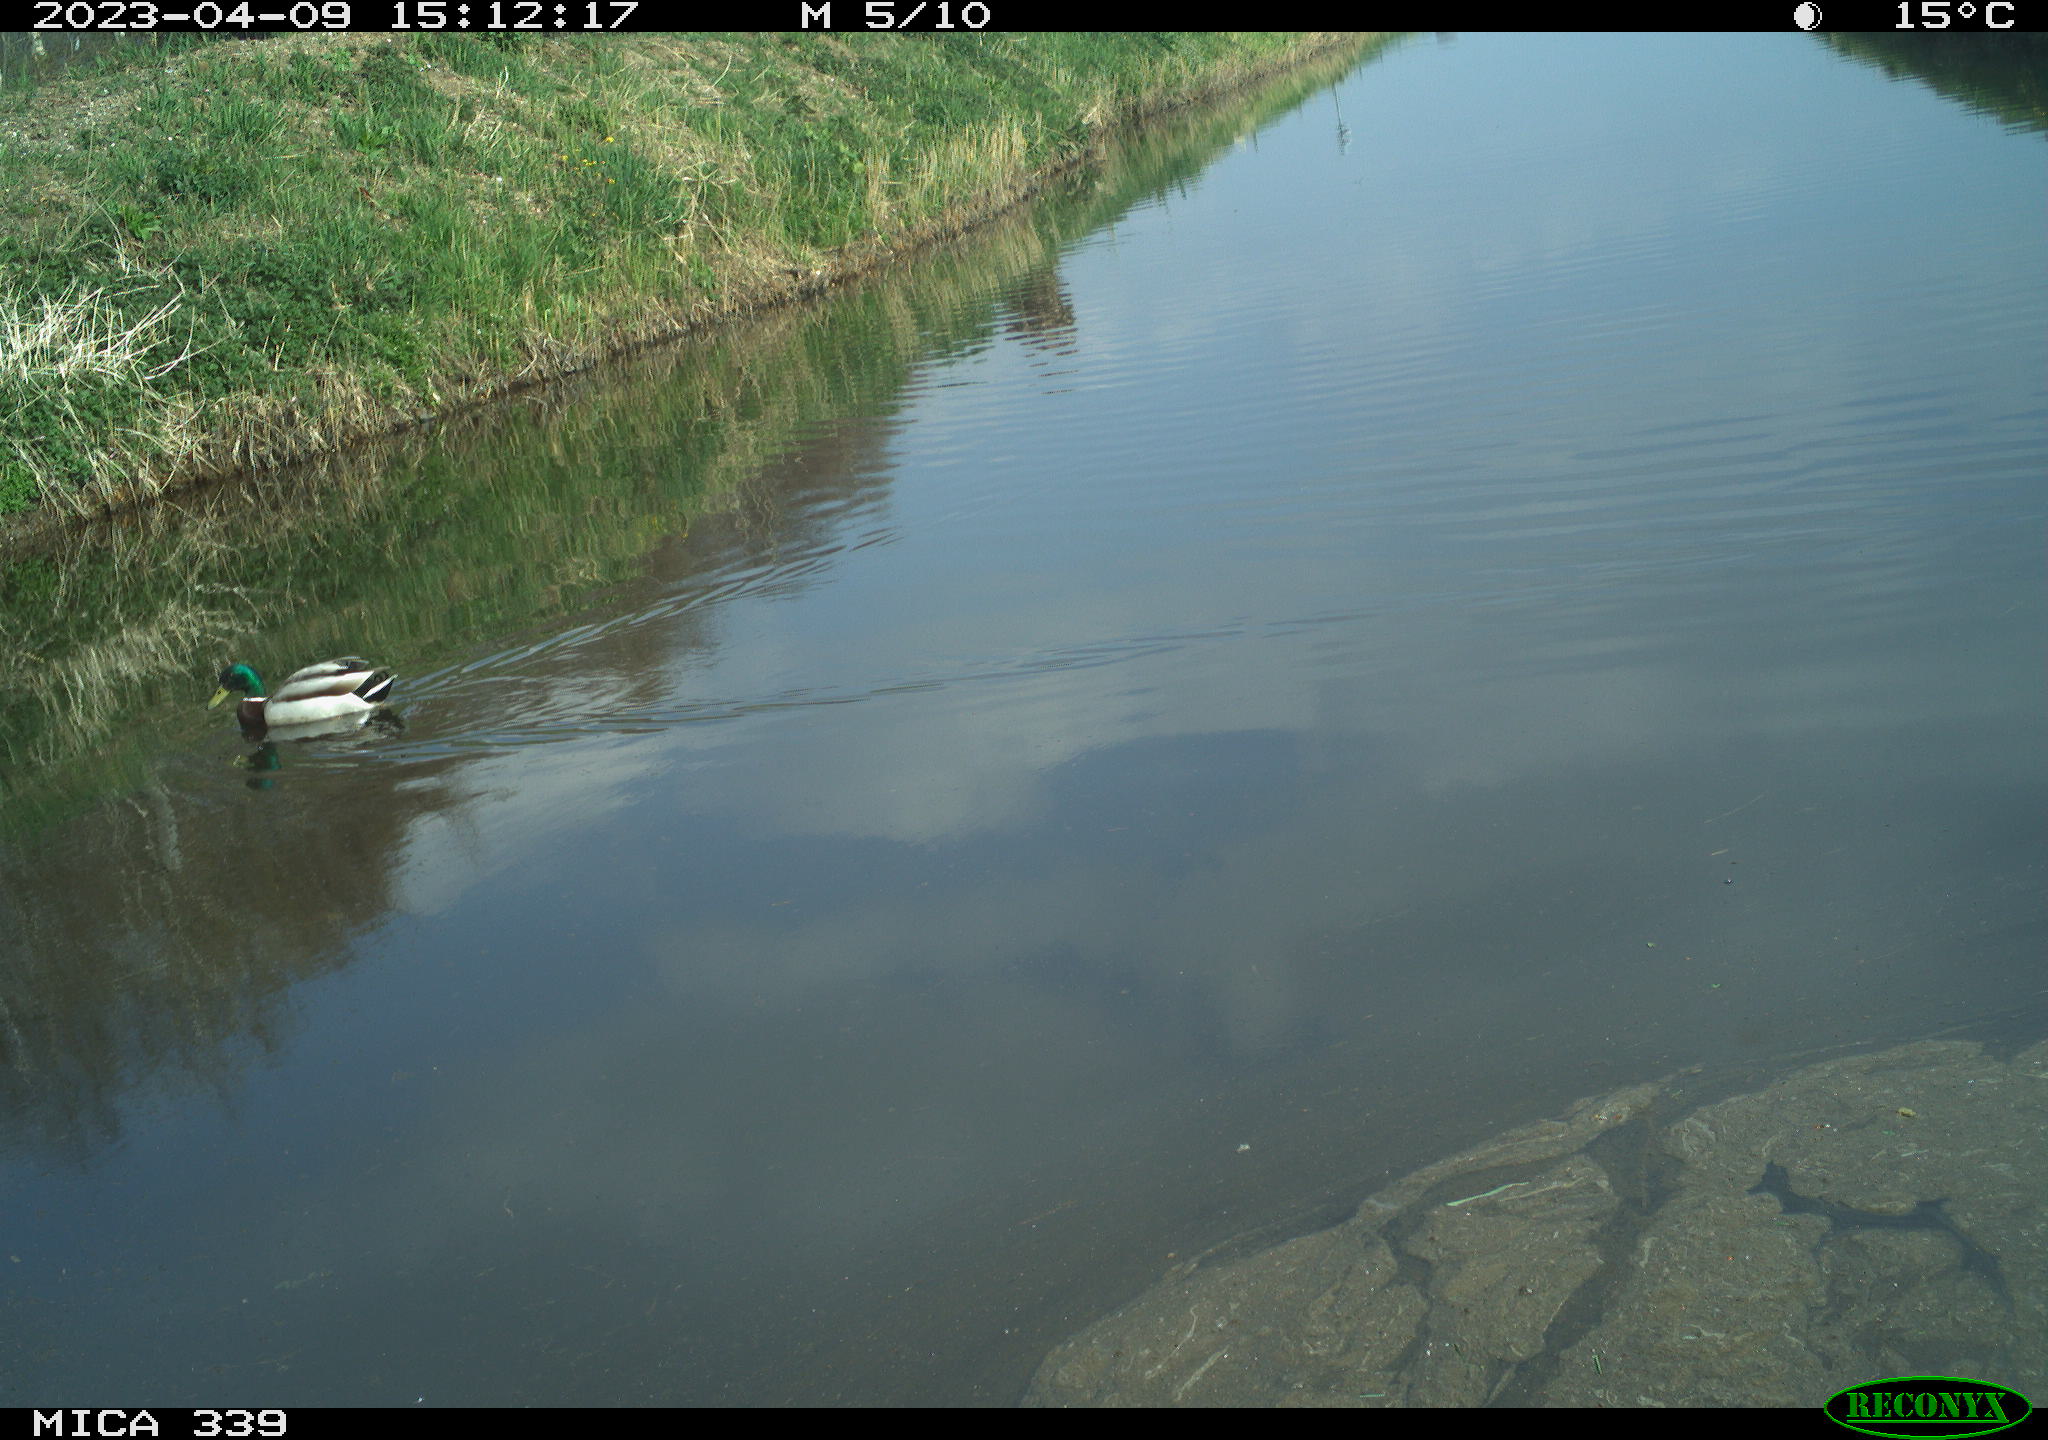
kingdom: Animalia
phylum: Chordata
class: Aves
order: Anseriformes
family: Anatidae
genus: Anas
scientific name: Anas
